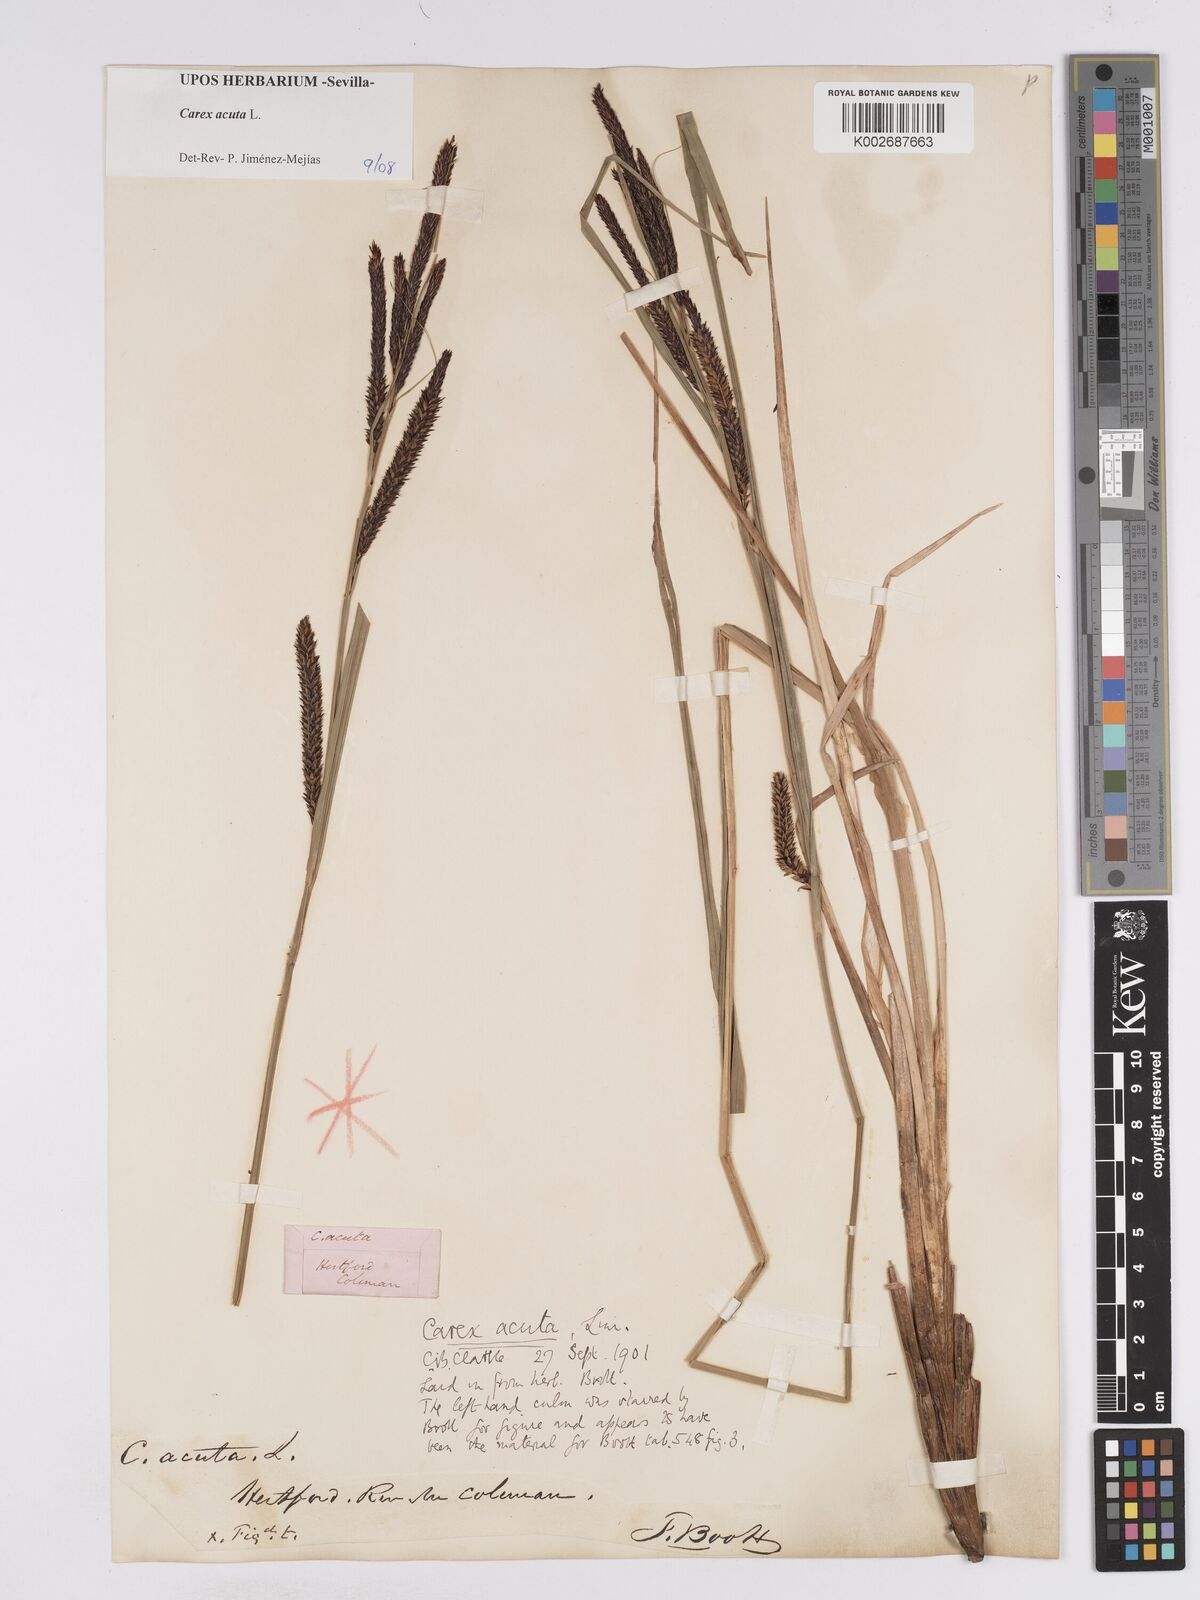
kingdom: Plantae
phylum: Tracheophyta
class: Liliopsida
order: Poales
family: Cyperaceae
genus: Carex
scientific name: Carex acuta
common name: Slender tufted-sedge
